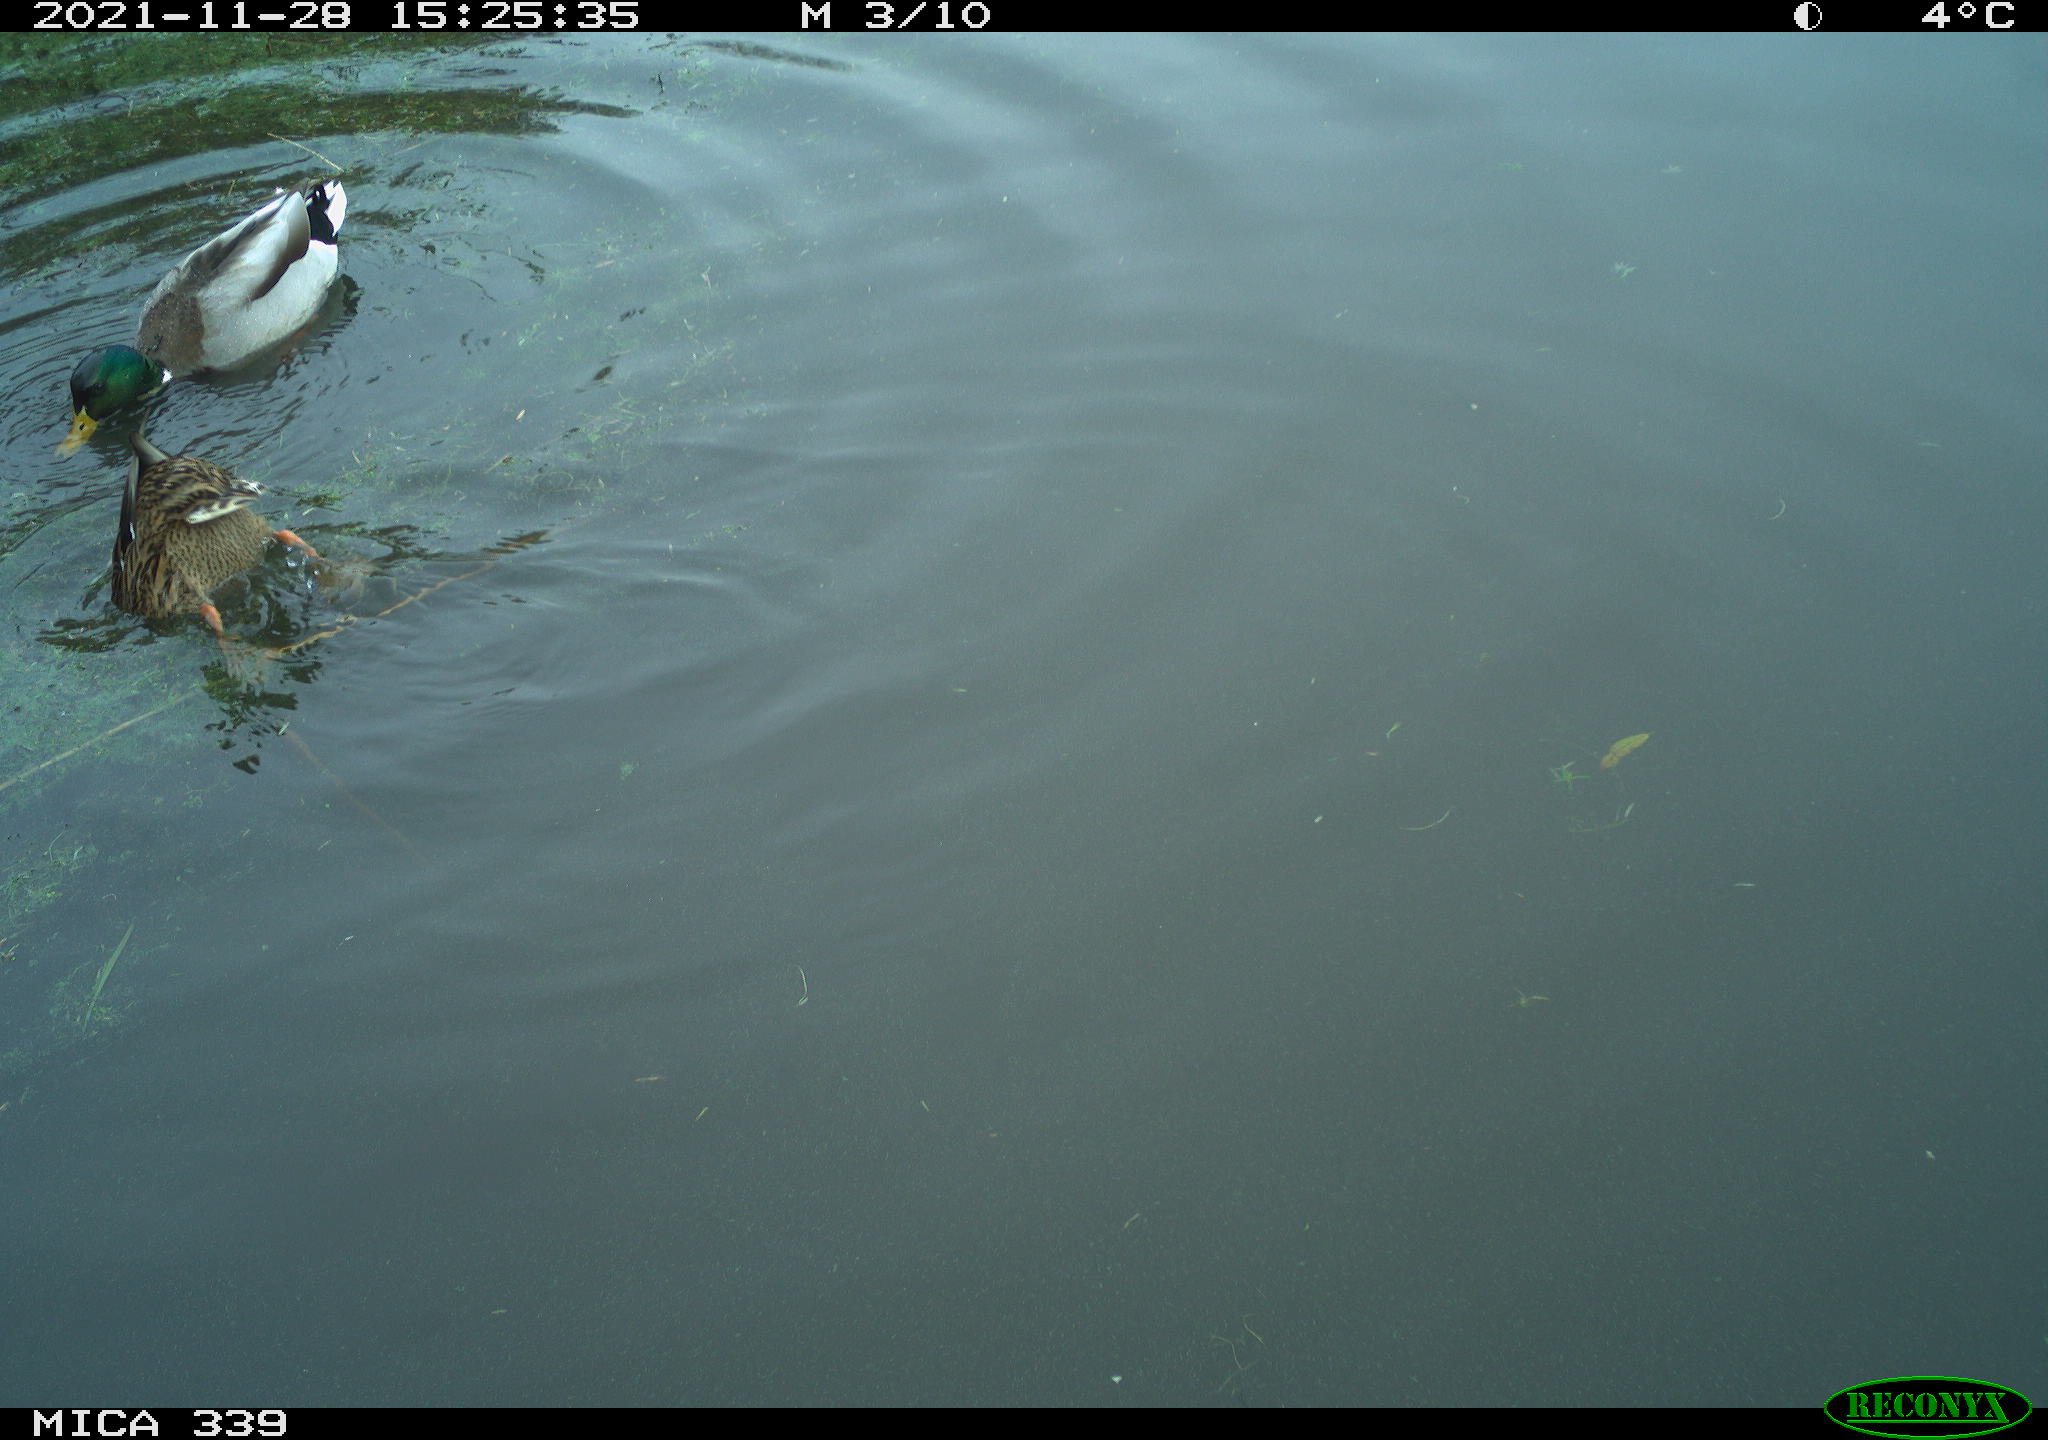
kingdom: Animalia
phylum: Chordata
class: Aves
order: Anseriformes
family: Anatidae
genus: Anas
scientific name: Anas platyrhynchos
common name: Mallard
